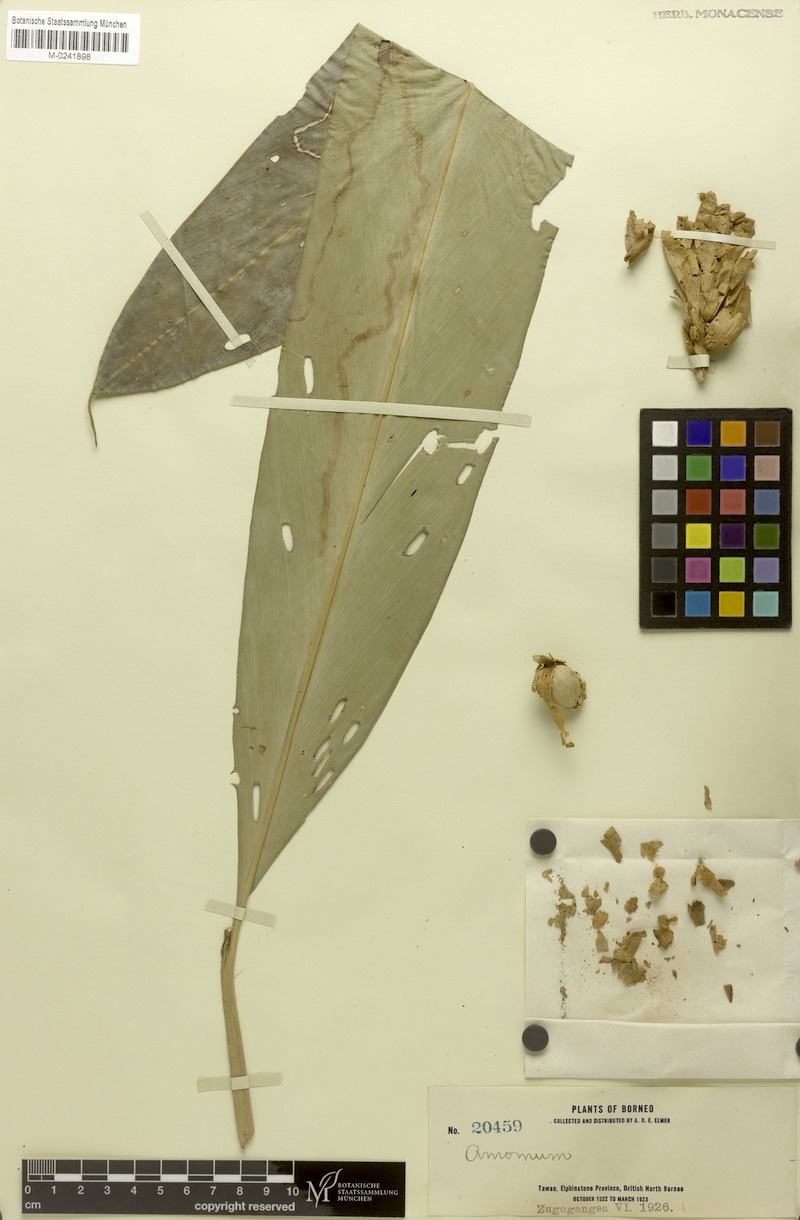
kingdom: Plantae
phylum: Tracheophyta
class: Liliopsida
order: Zingiberales
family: Zingiberaceae
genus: Amomum
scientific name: Amomum
